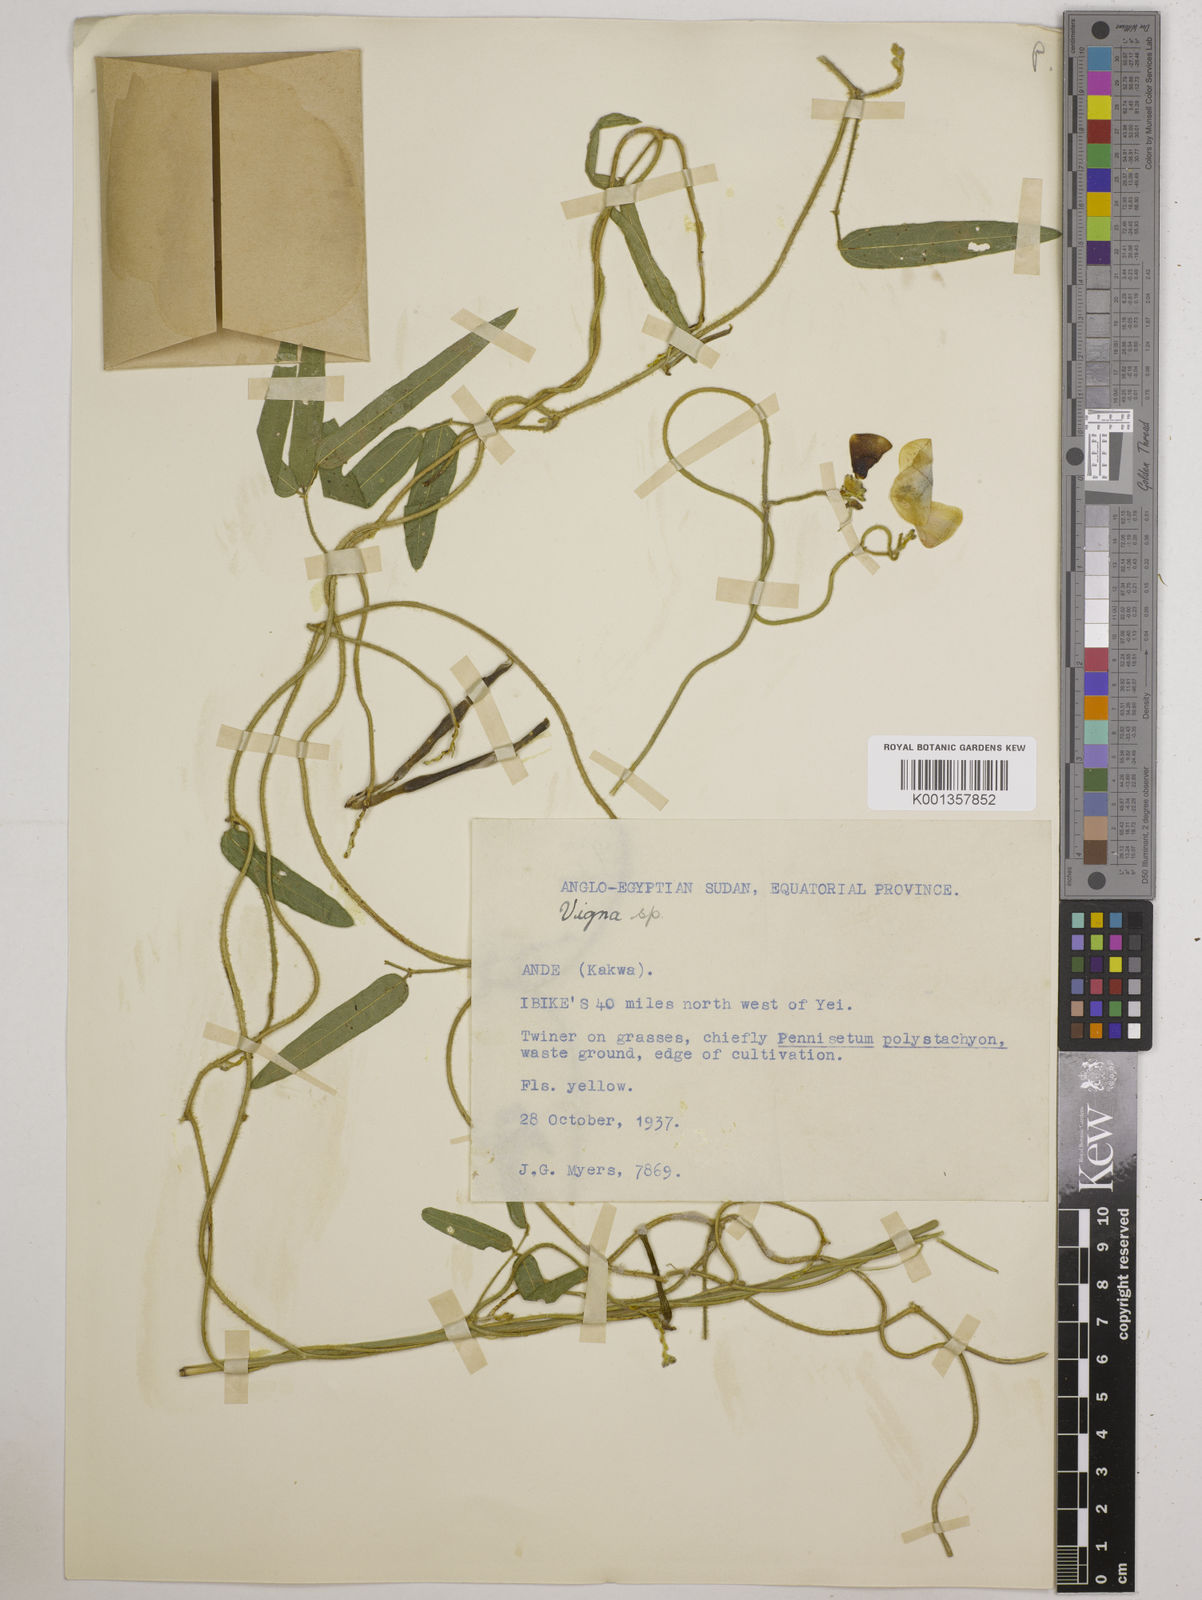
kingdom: Plantae
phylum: Tracheophyta
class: Magnoliopsida
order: Fabales
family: Fabaceae
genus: Vigna
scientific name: Vigna ambacensis
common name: Tsarkiyan zomo
